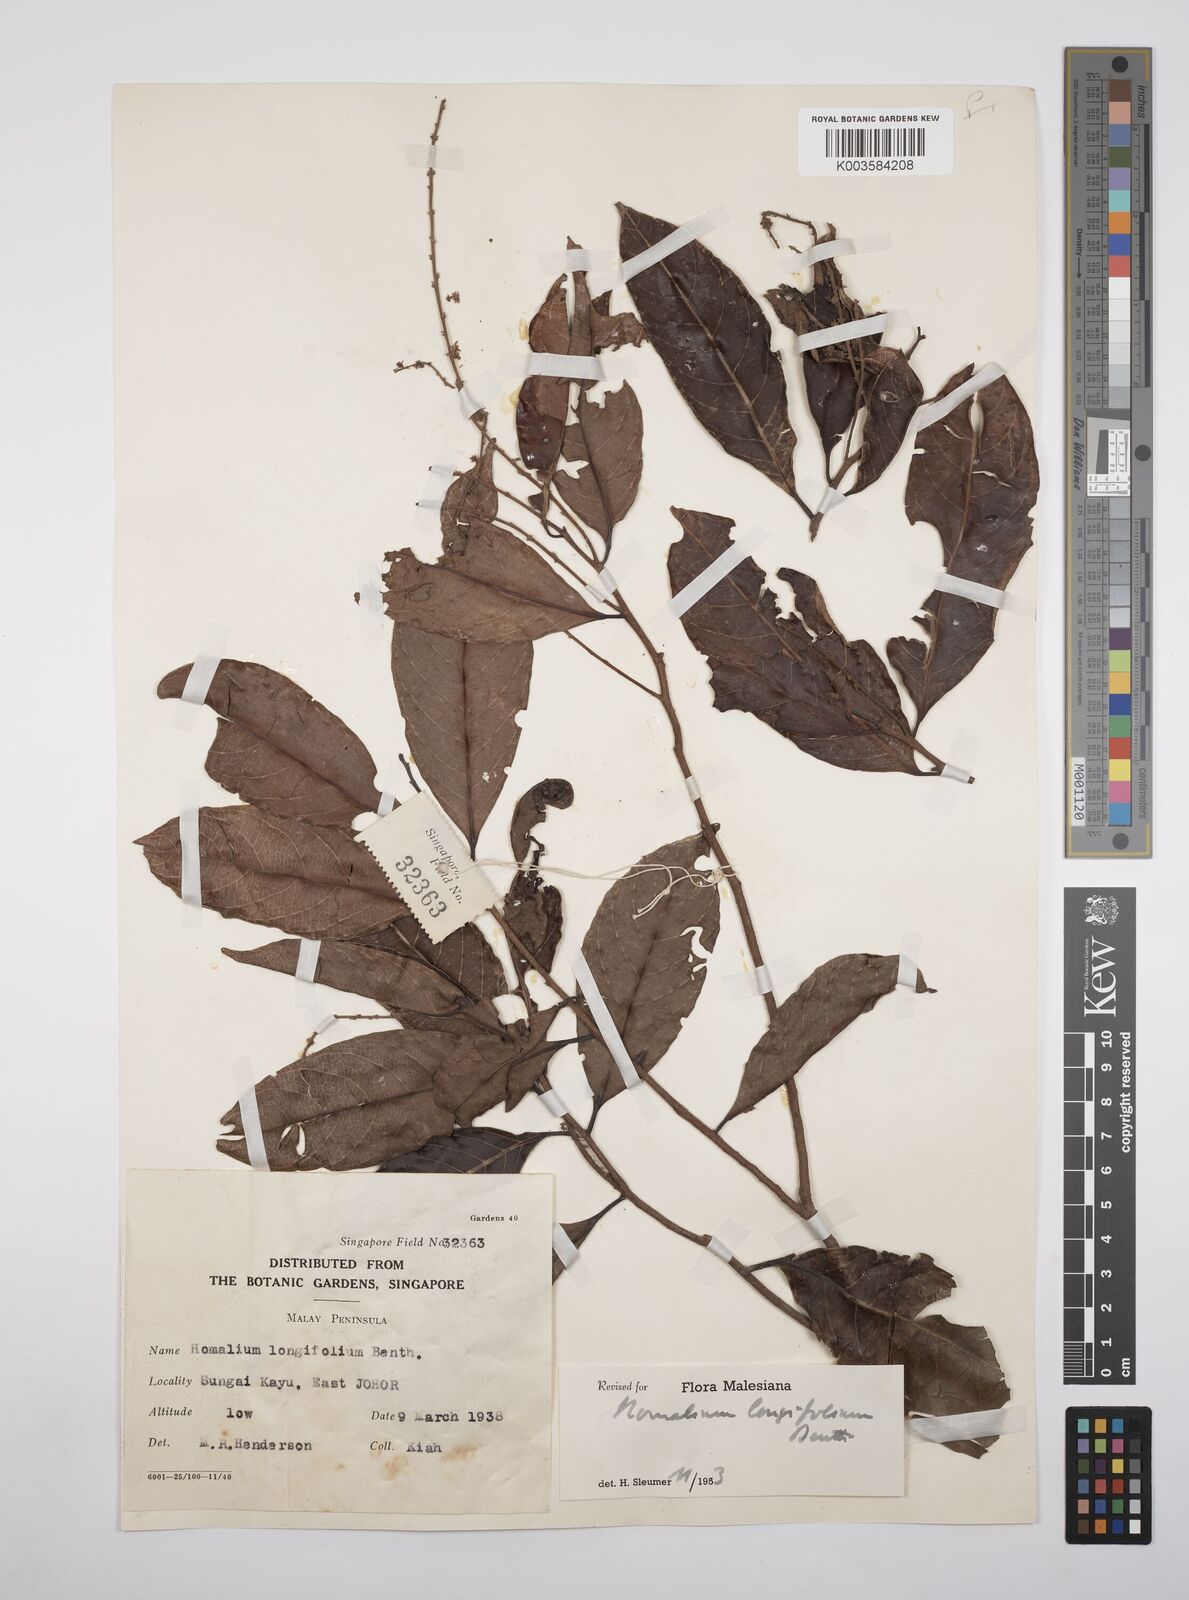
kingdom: Plantae
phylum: Tracheophyta
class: Magnoliopsida
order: Malpighiales
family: Salicaceae
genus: Homalium
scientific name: Homalium longifolium
